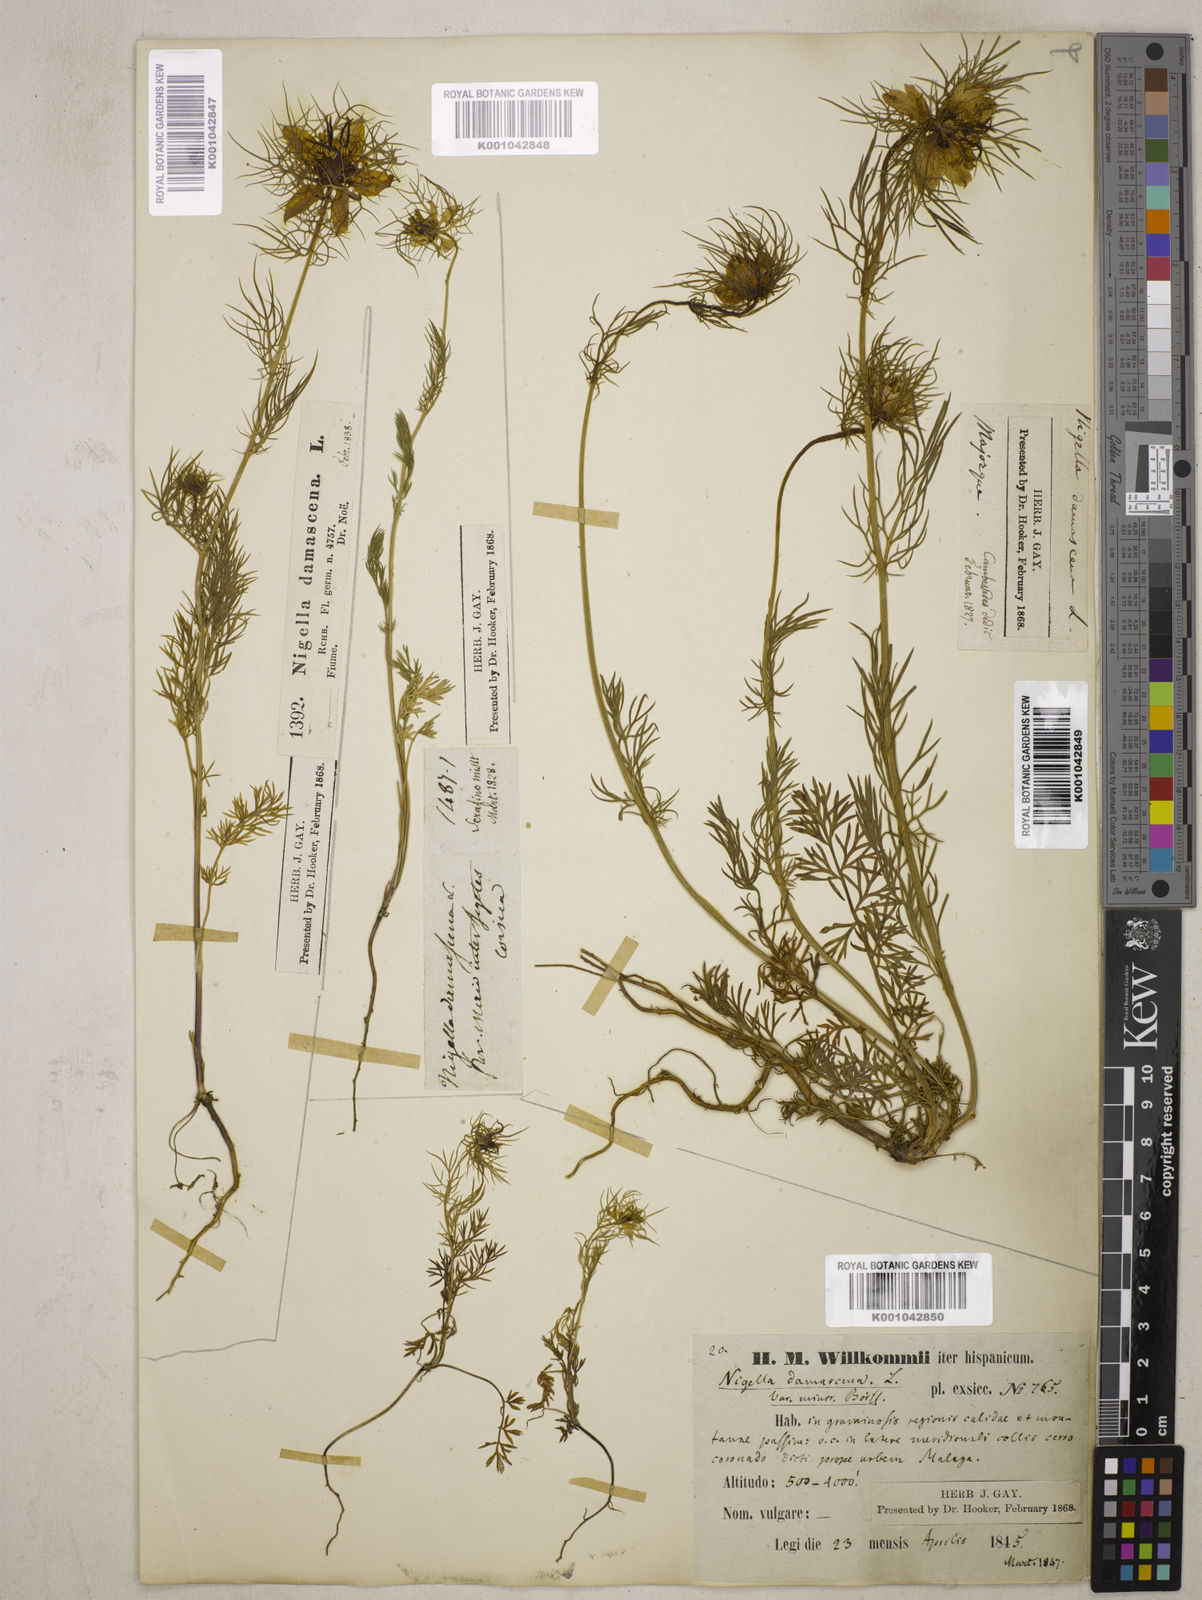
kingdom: Plantae
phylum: Tracheophyta
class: Magnoliopsida
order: Ranunculales
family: Ranunculaceae
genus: Nigella
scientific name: Nigella damascena
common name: Love-in-a-mist
